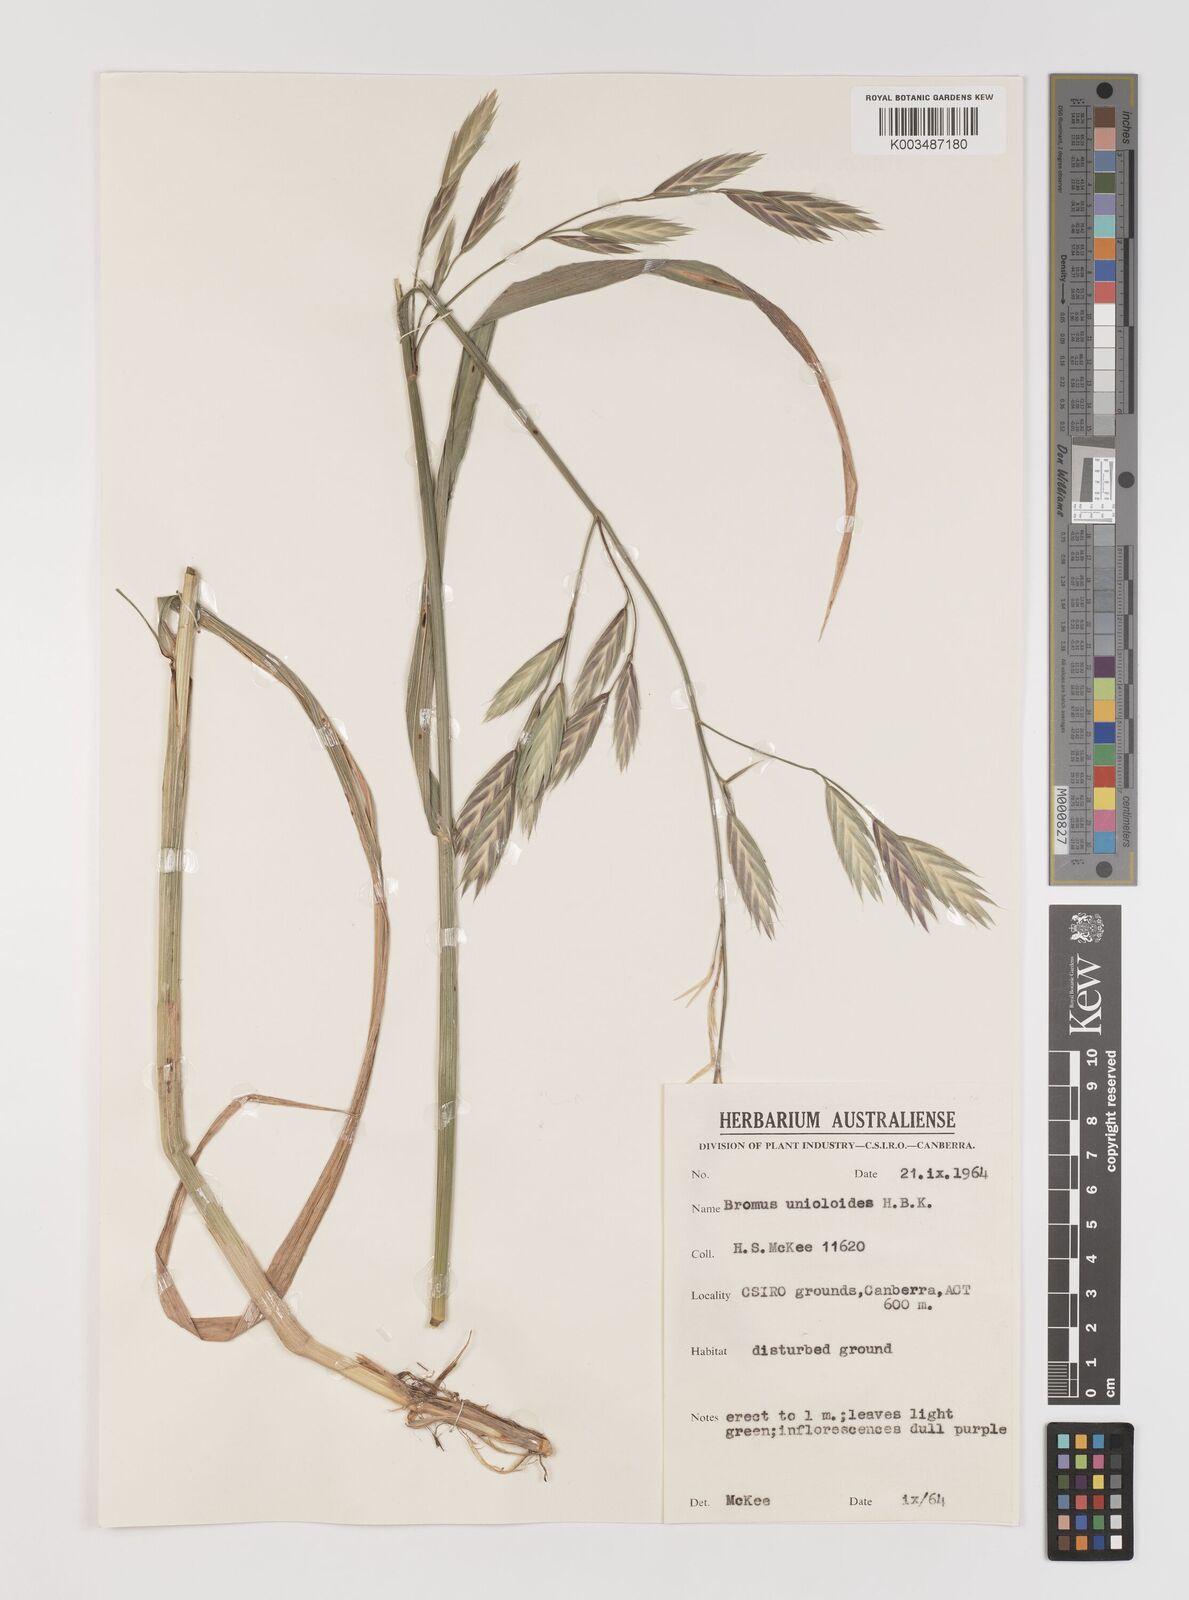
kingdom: Plantae
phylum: Tracheophyta
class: Liliopsida
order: Poales
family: Poaceae
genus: Bromus
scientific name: Bromus catharticus
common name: Rescuegrass
